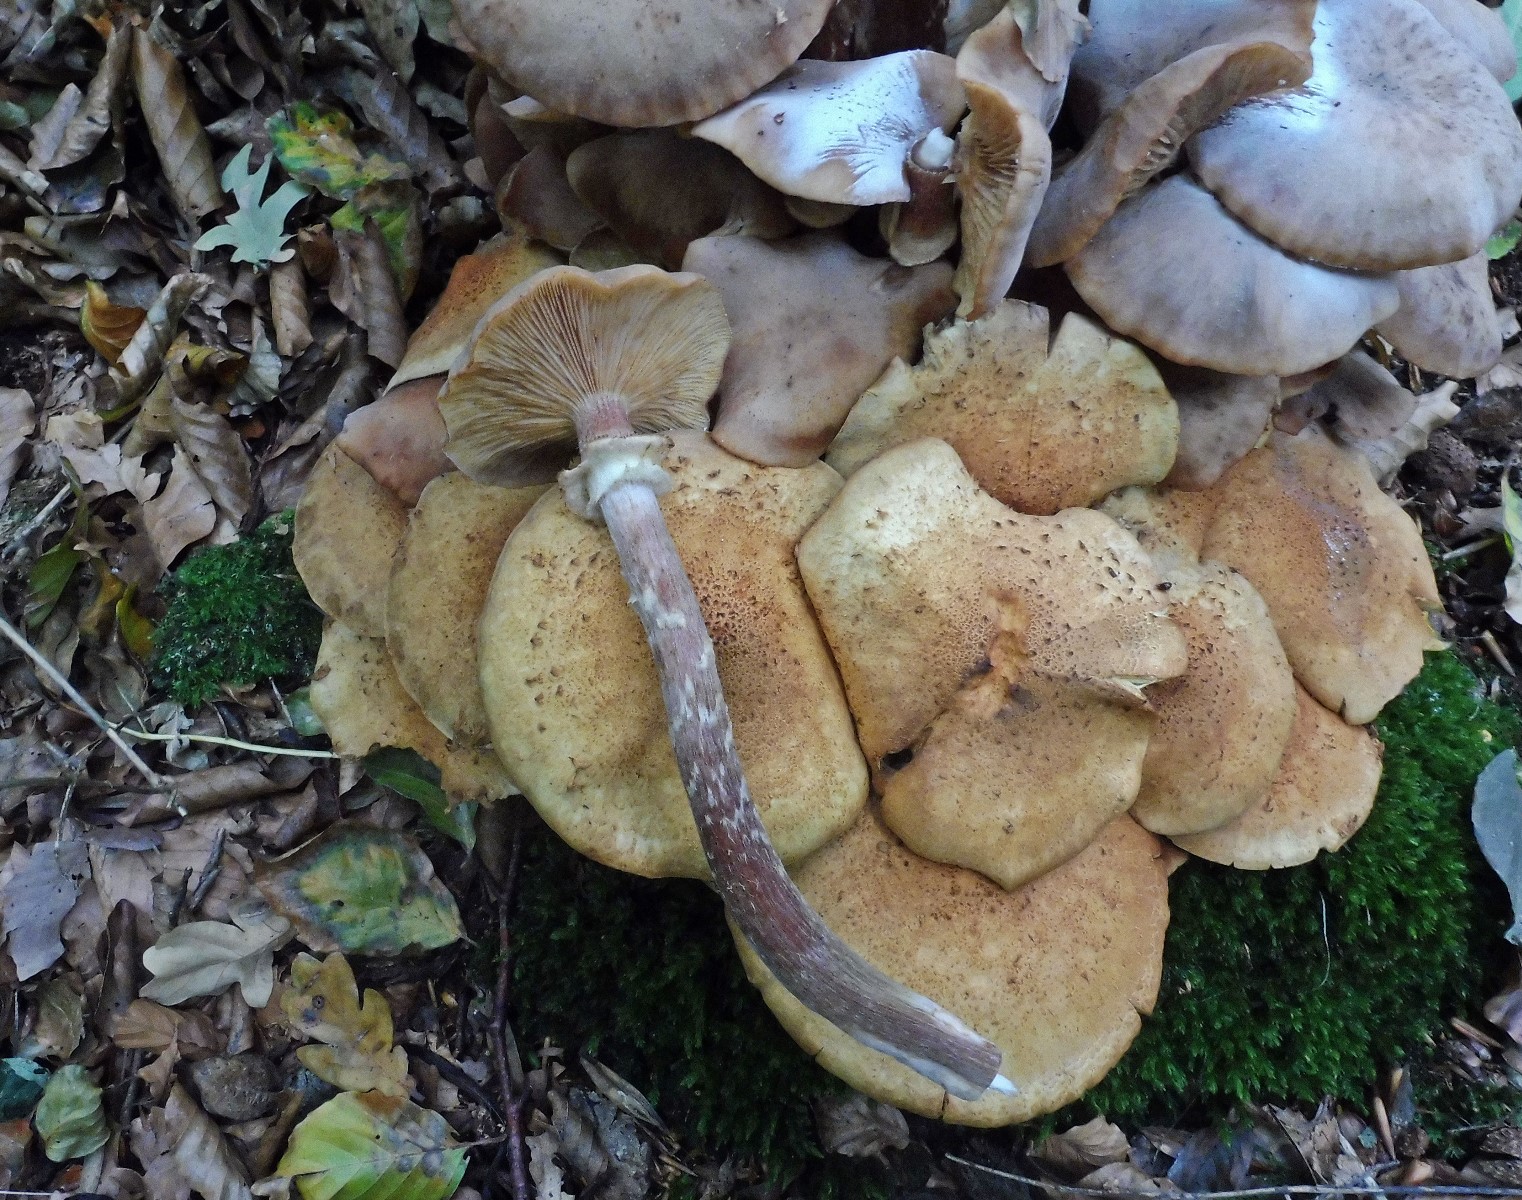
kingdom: Fungi
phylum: Basidiomycota
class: Agaricomycetes
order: Agaricales
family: Physalacriaceae
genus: Armillaria
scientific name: Armillaria mellea
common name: ægte honningsvamp
